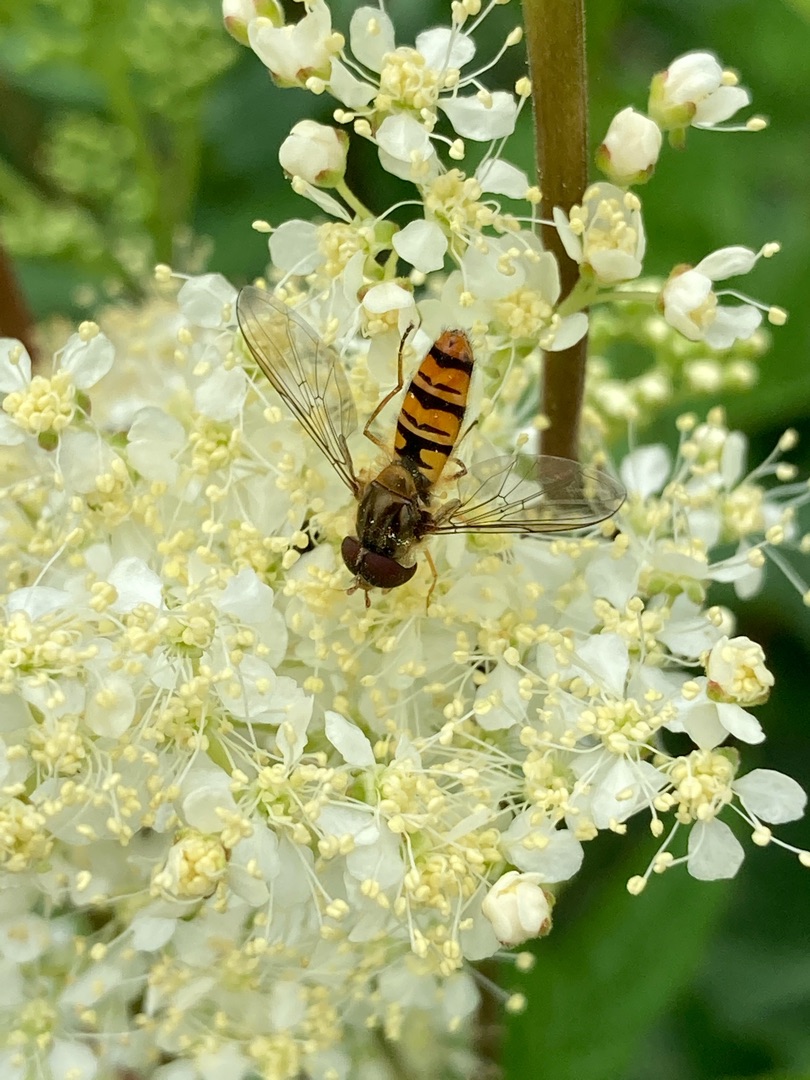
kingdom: Animalia
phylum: Arthropoda
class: Insecta
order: Diptera
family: Syrphidae
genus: Episyrphus
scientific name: Episyrphus balteatus
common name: Dobbeltbåndet svirreflue
